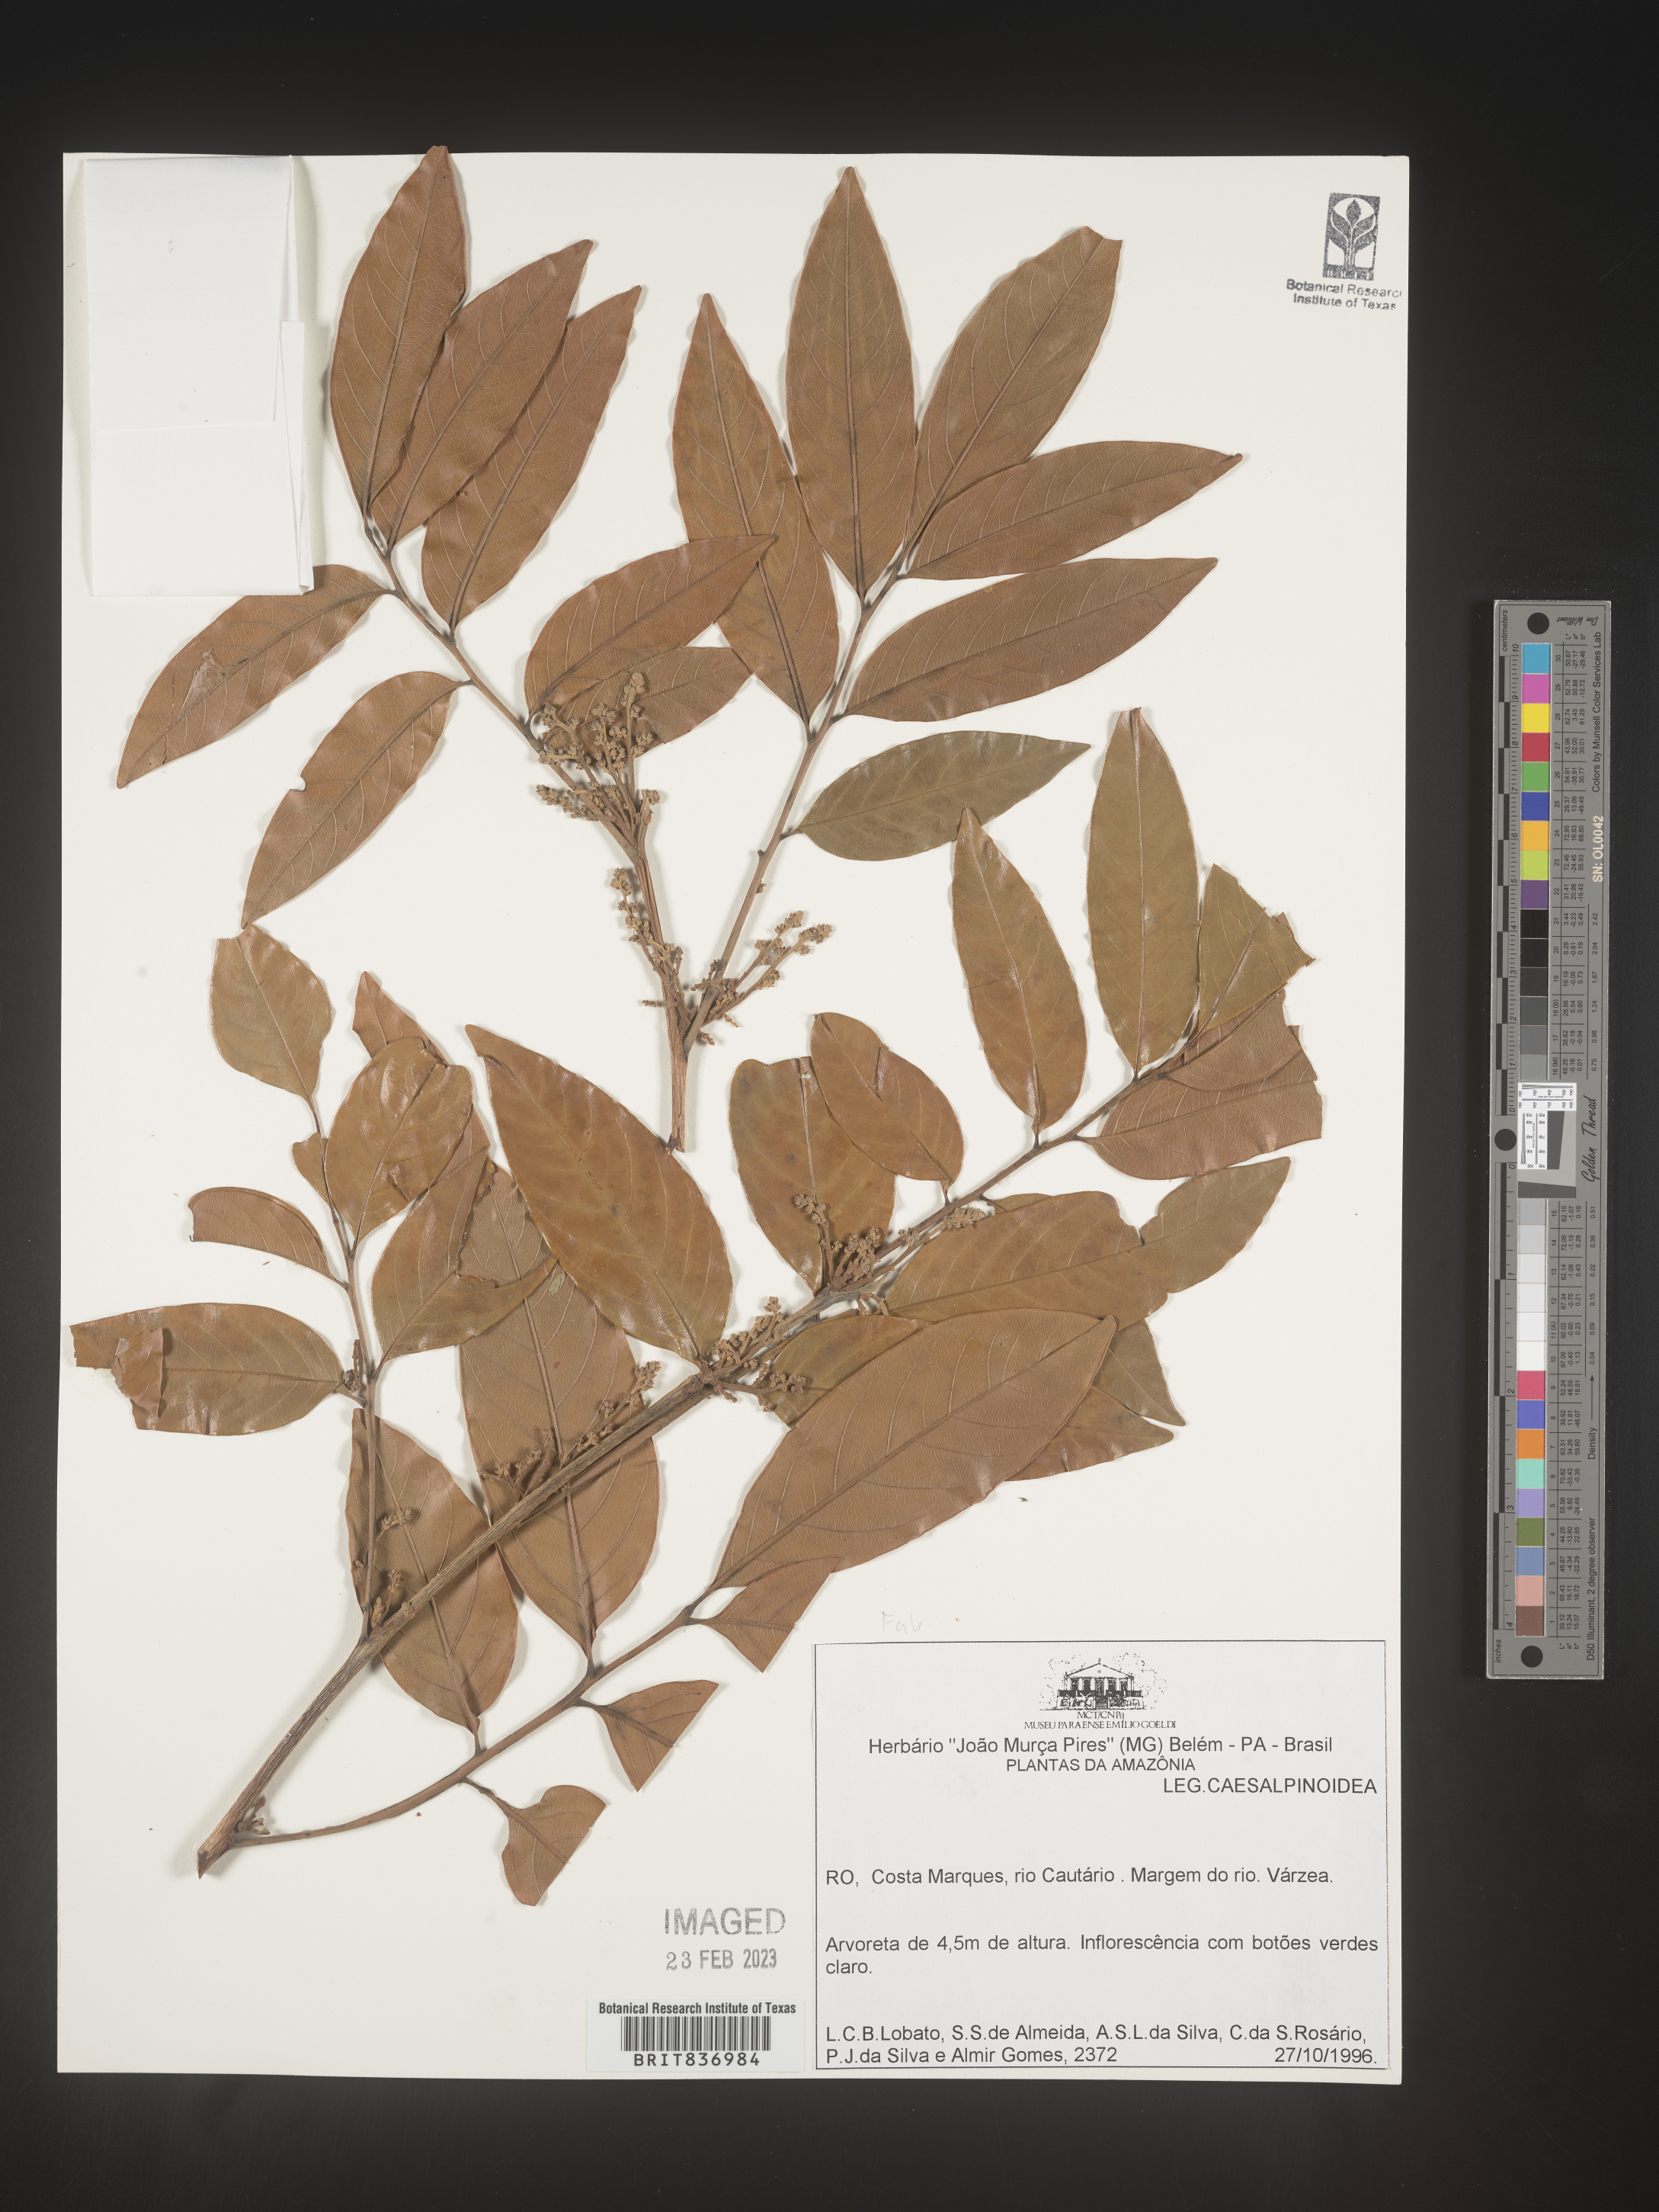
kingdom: Plantae
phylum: Tracheophyta
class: Magnoliopsida
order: Fabales
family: Fabaceae
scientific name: Fabaceae
